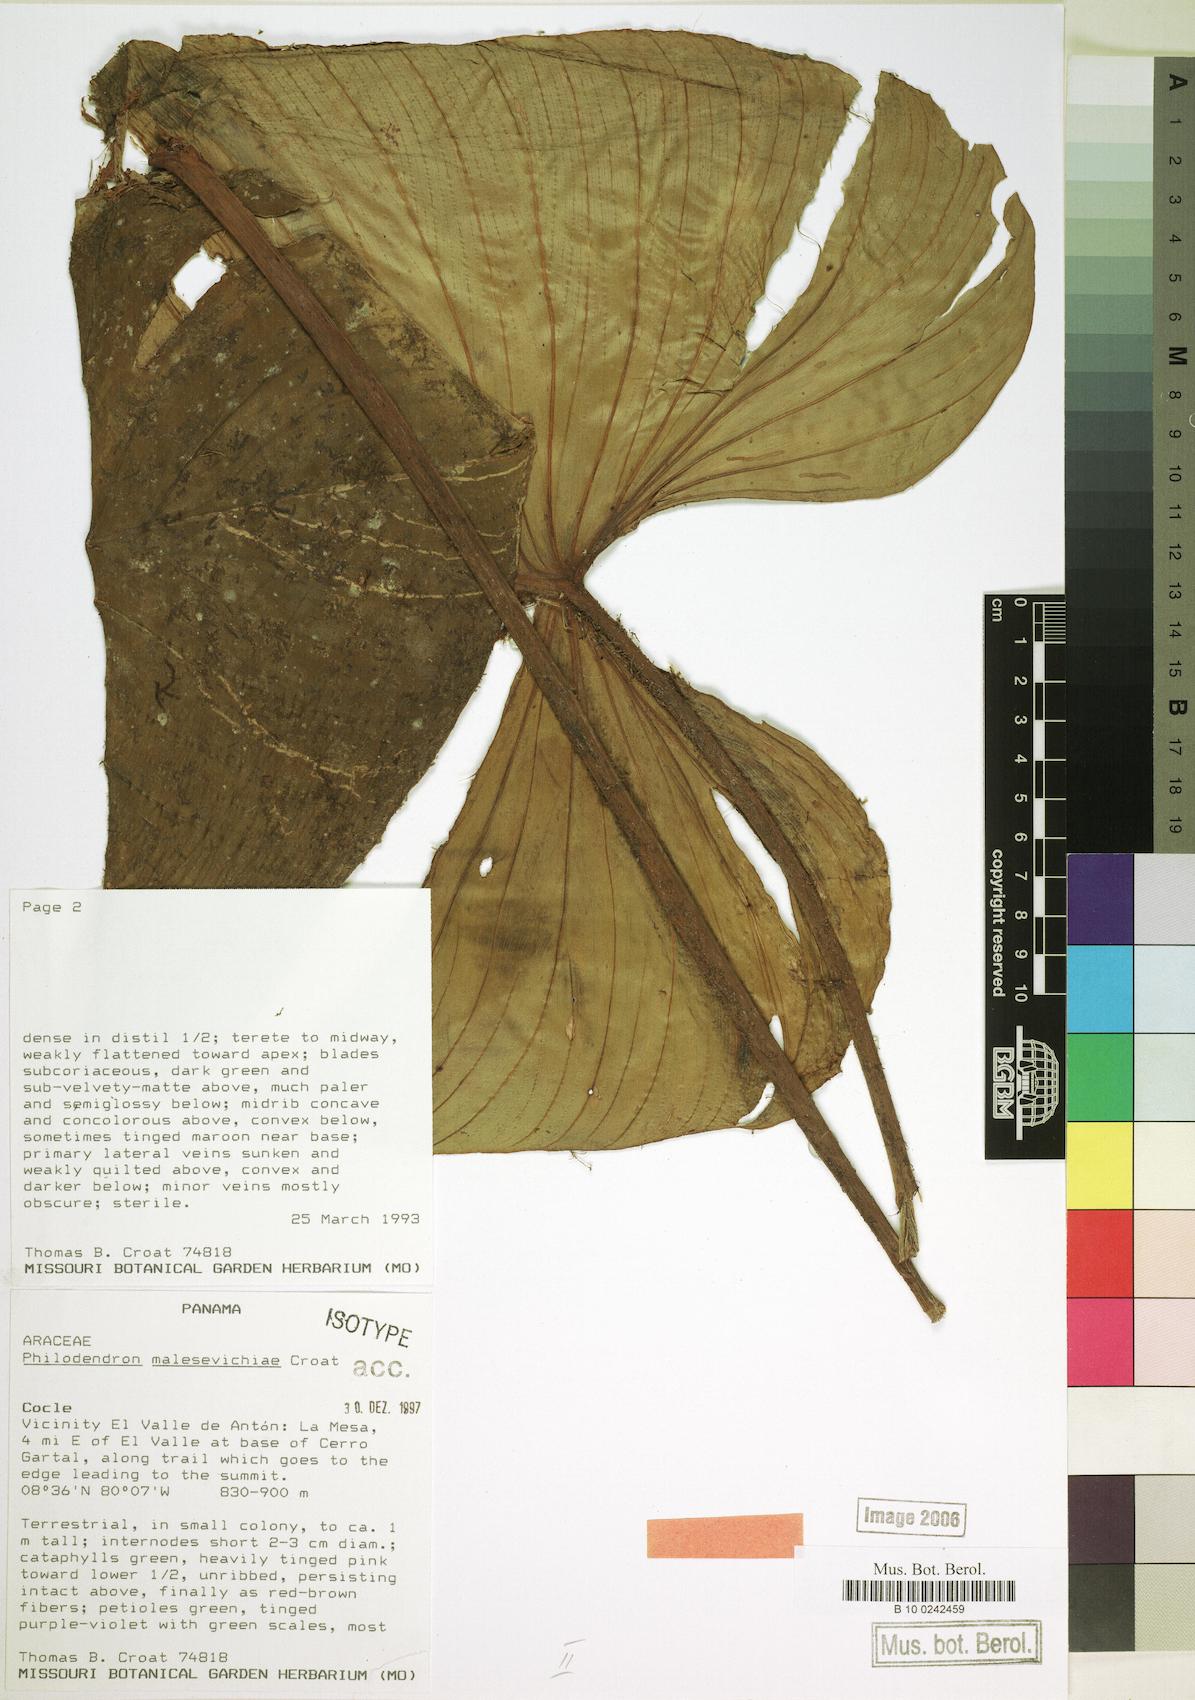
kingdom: Plantae
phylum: Tracheophyta
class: Liliopsida
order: Alismatales
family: Araceae
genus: Philodendron
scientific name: Philodendron malesevichiae
